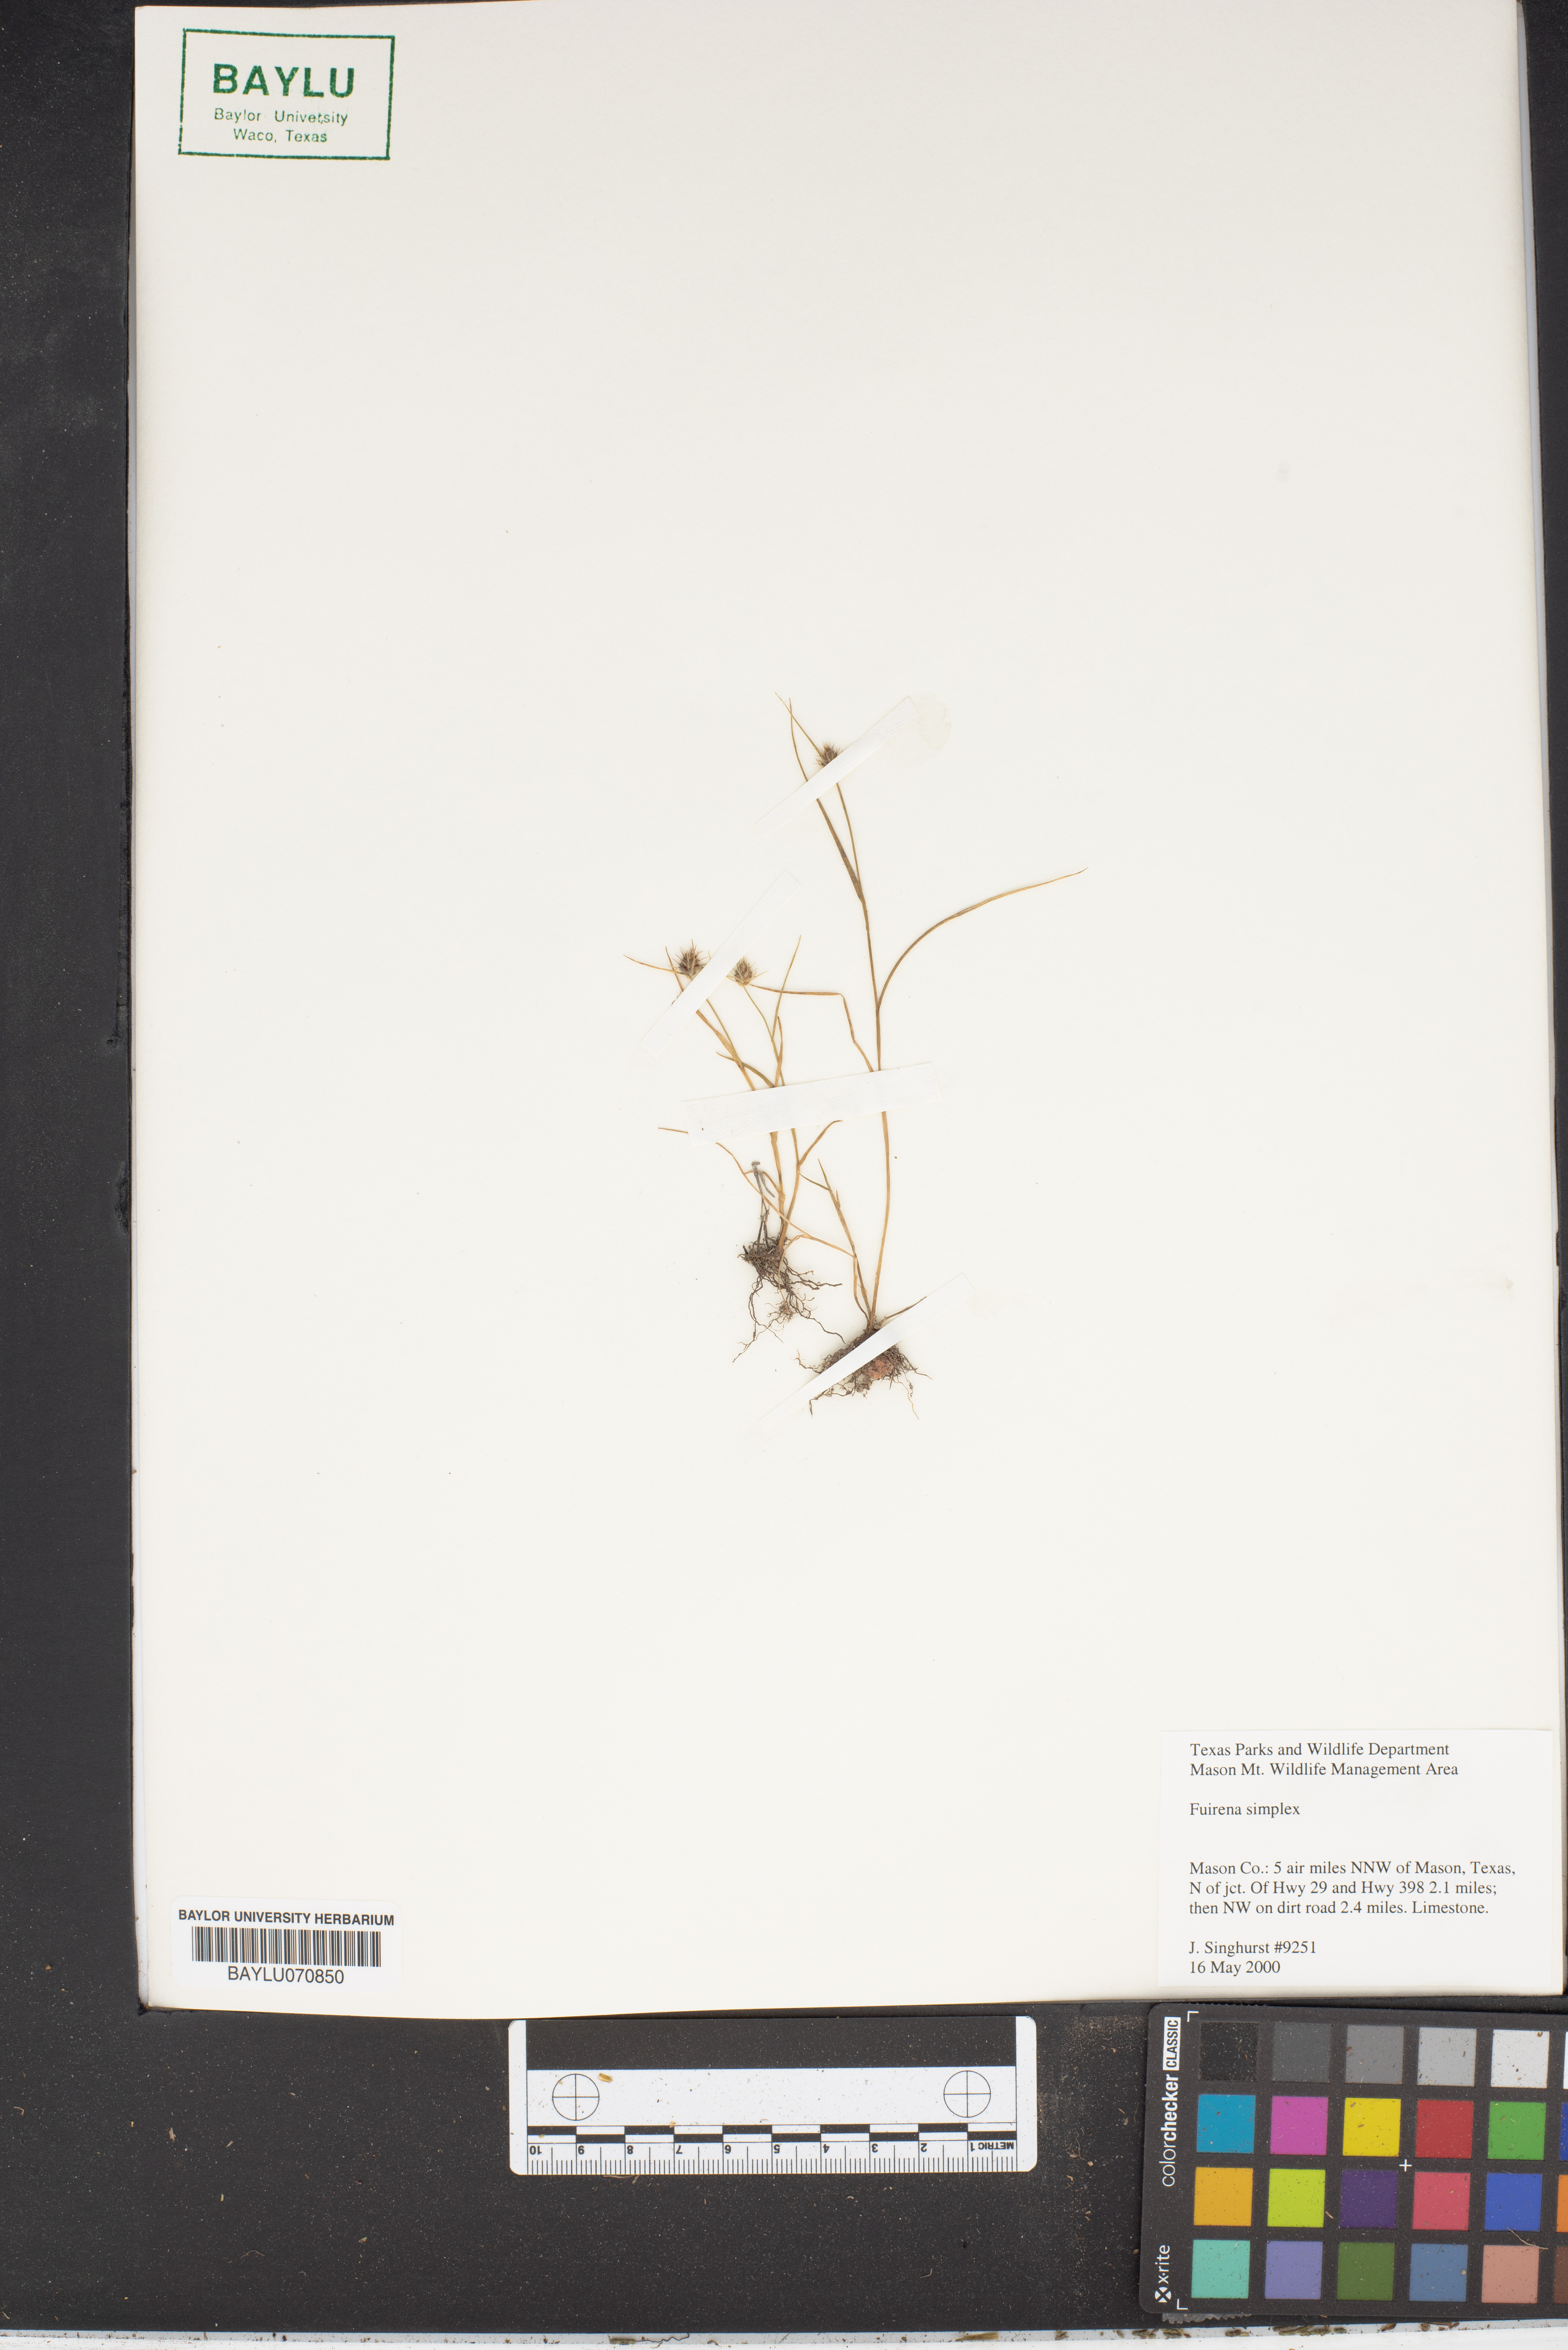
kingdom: Plantae
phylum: Tracheophyta
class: Liliopsida
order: Poales
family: Cyperaceae
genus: Fuirena
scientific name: Fuirena simplex
